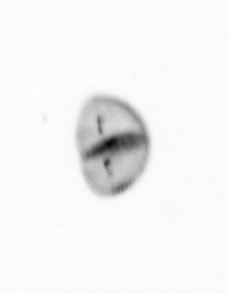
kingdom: Chromista
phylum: Ochrophyta
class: Bacillariophyceae
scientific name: Bacillariophyceae
